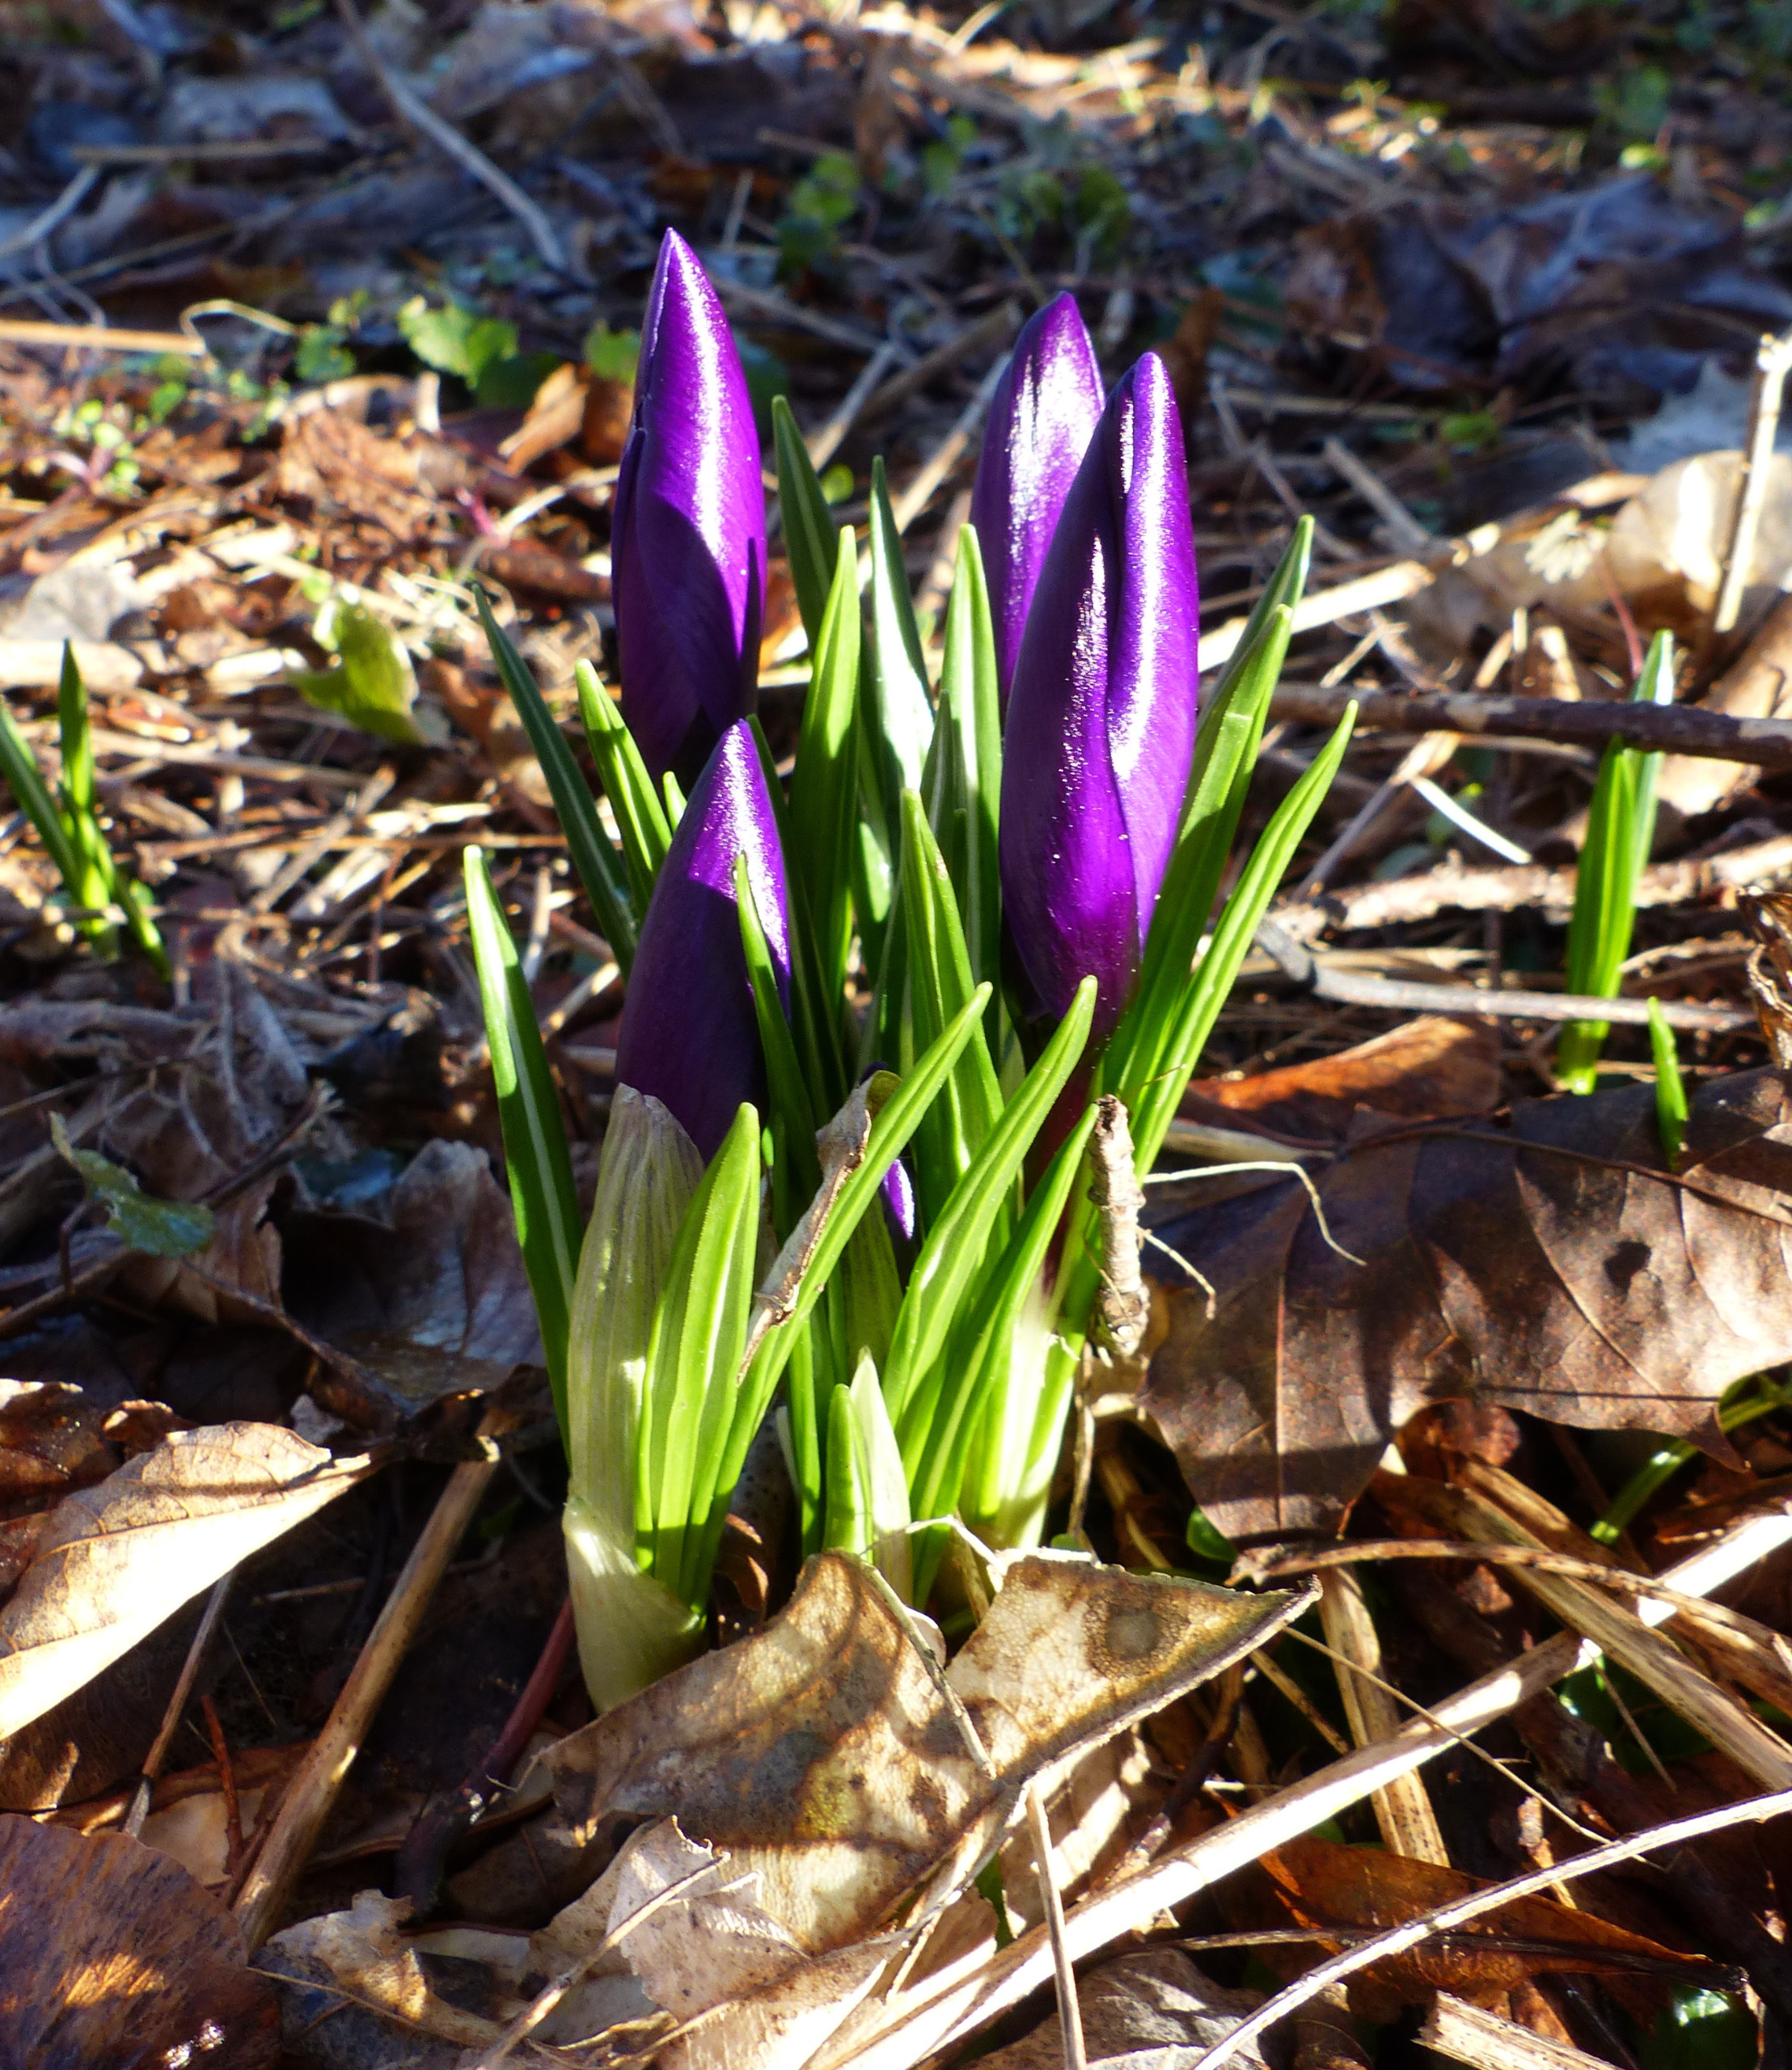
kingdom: Plantae
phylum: Tracheophyta
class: Liliopsida
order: Asparagales
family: Iridaceae
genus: Crocus
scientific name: Crocus vernus
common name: Vår-krokus
